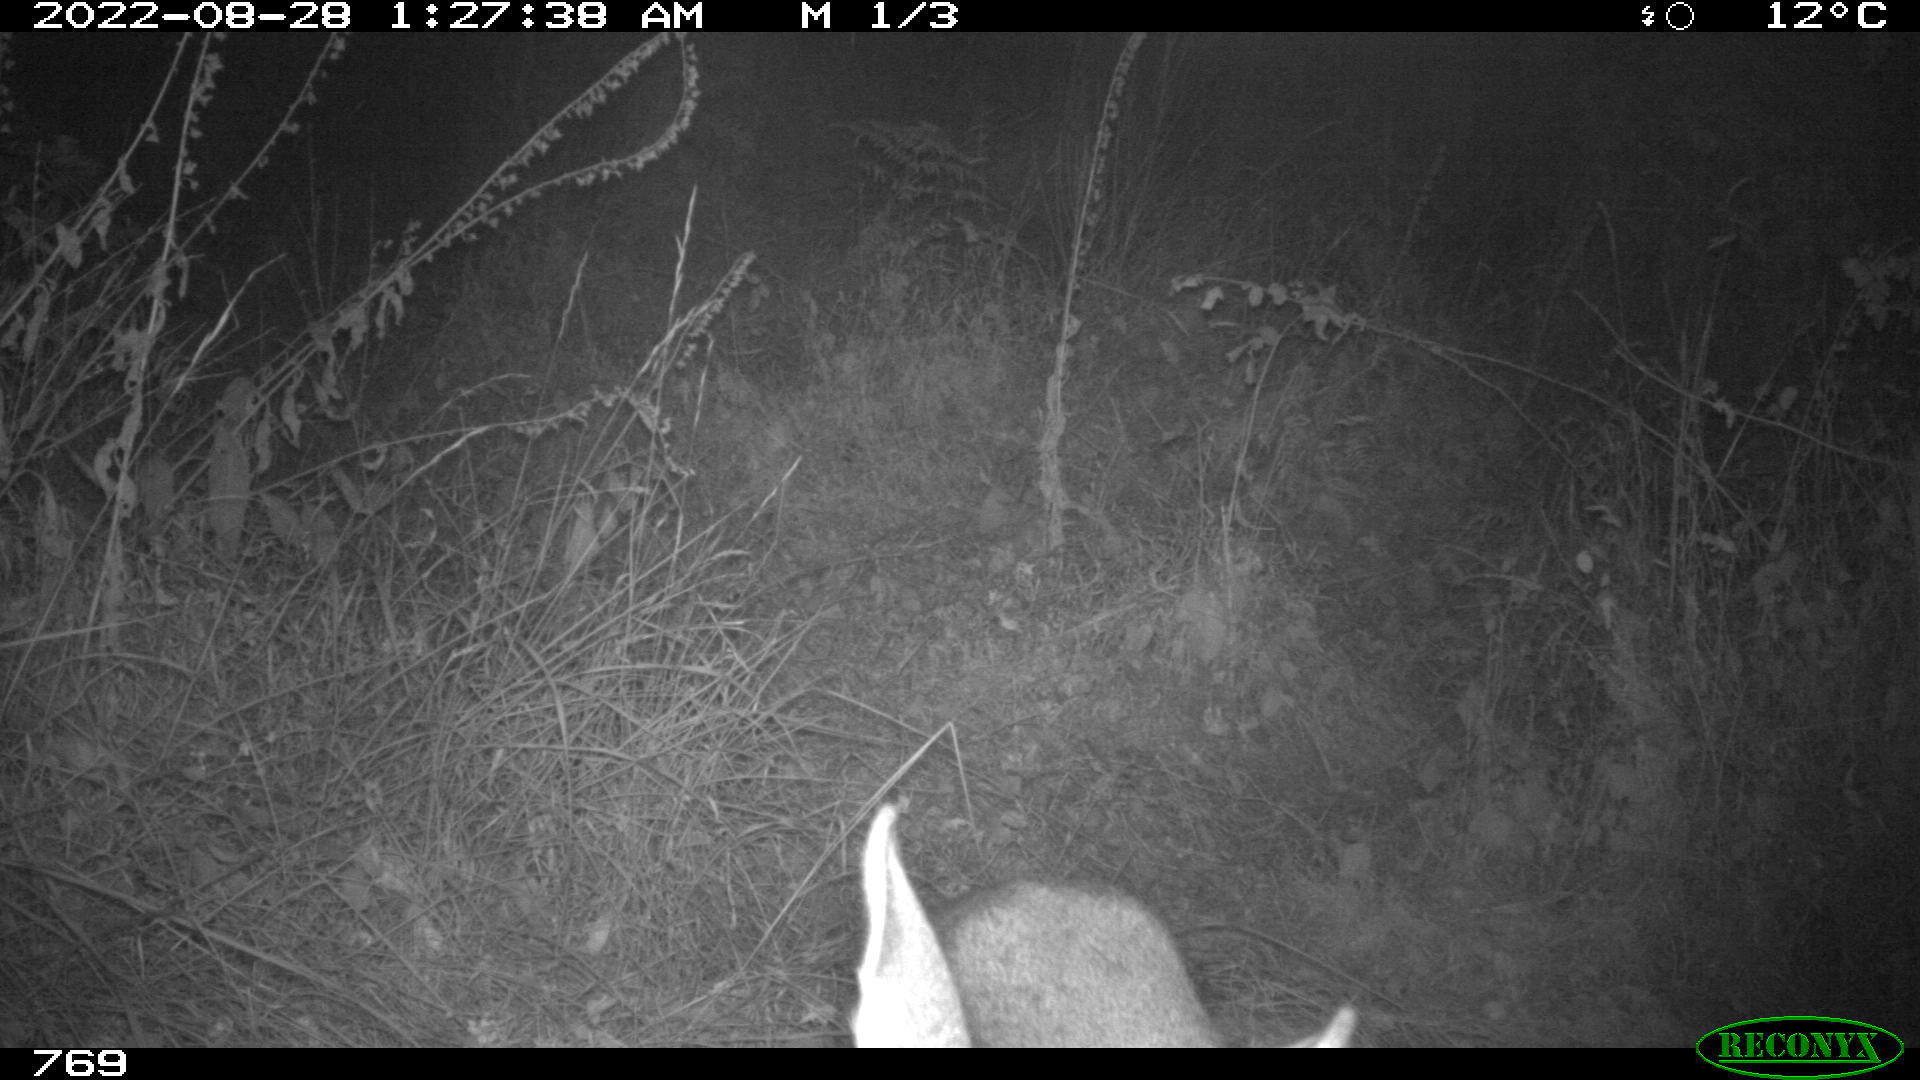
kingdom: Animalia
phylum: Chordata
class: Mammalia
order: Artiodactyla
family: Cervidae
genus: Capreolus
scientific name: Capreolus capreolus
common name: Western roe deer
